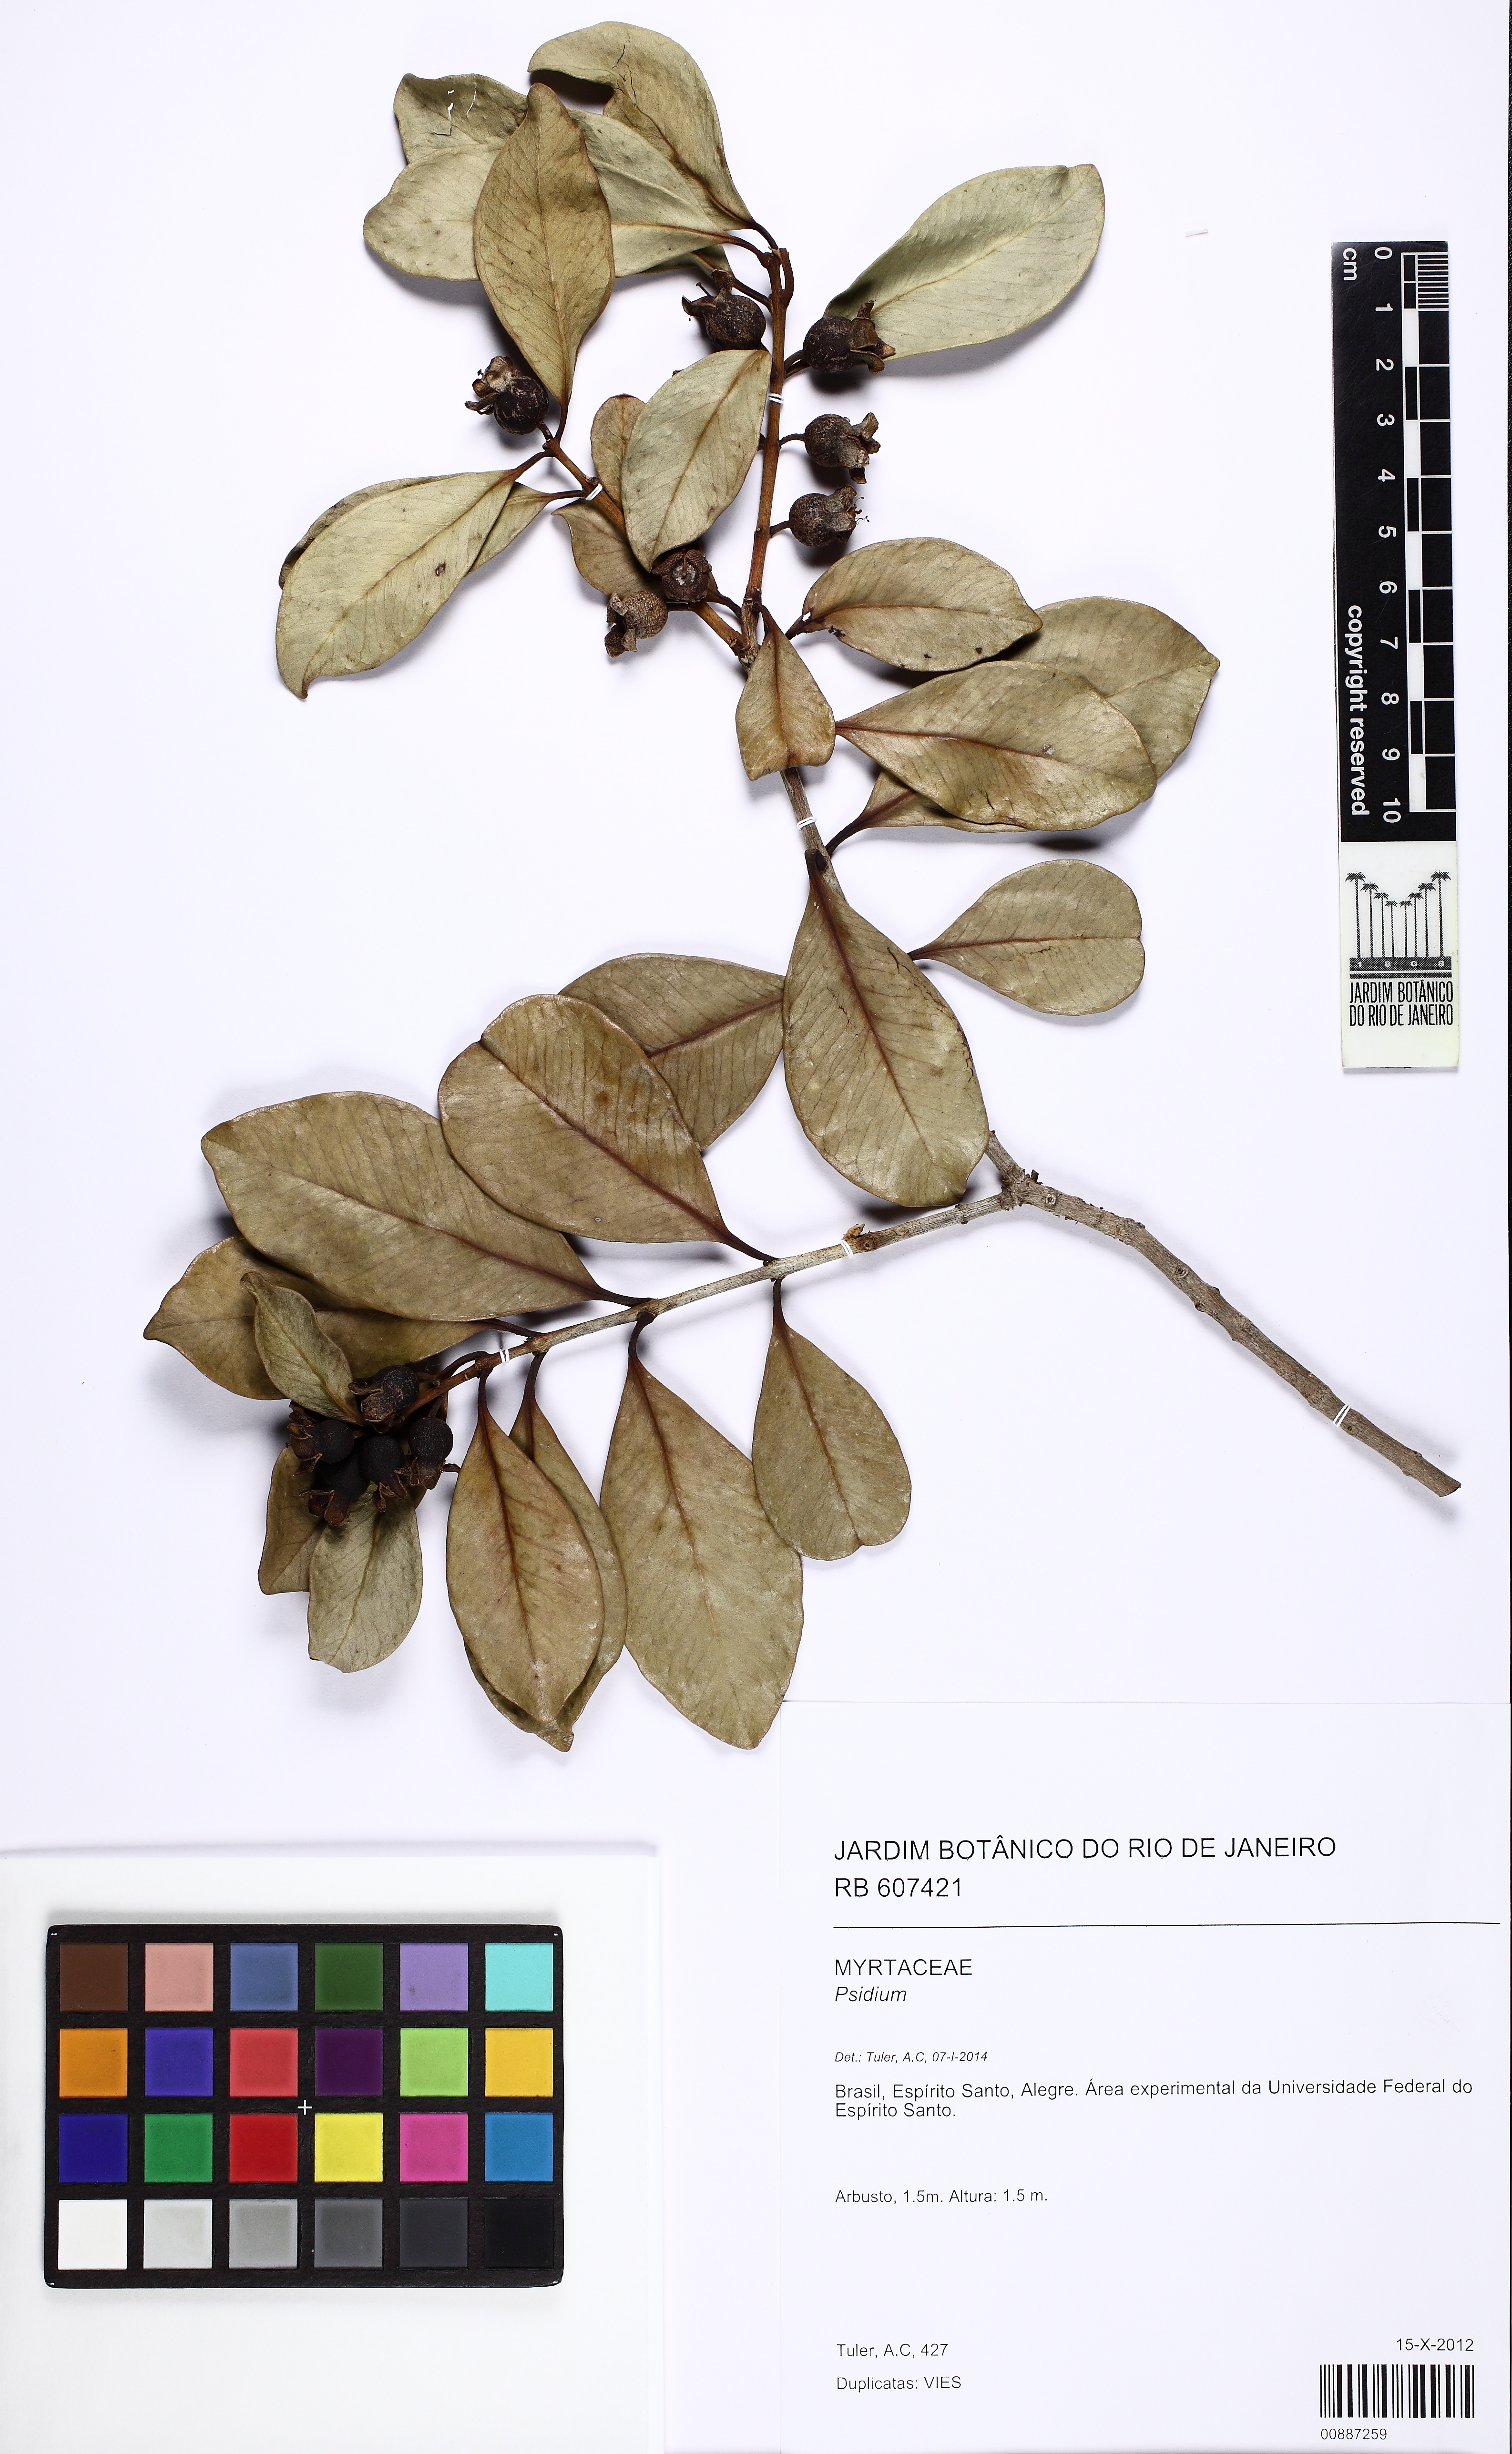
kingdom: Plantae
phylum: Tracheophyta
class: Magnoliopsida
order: Myrtales
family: Myrtaceae
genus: Psidium
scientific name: Psidium cattleianum
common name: Strawberry guava
